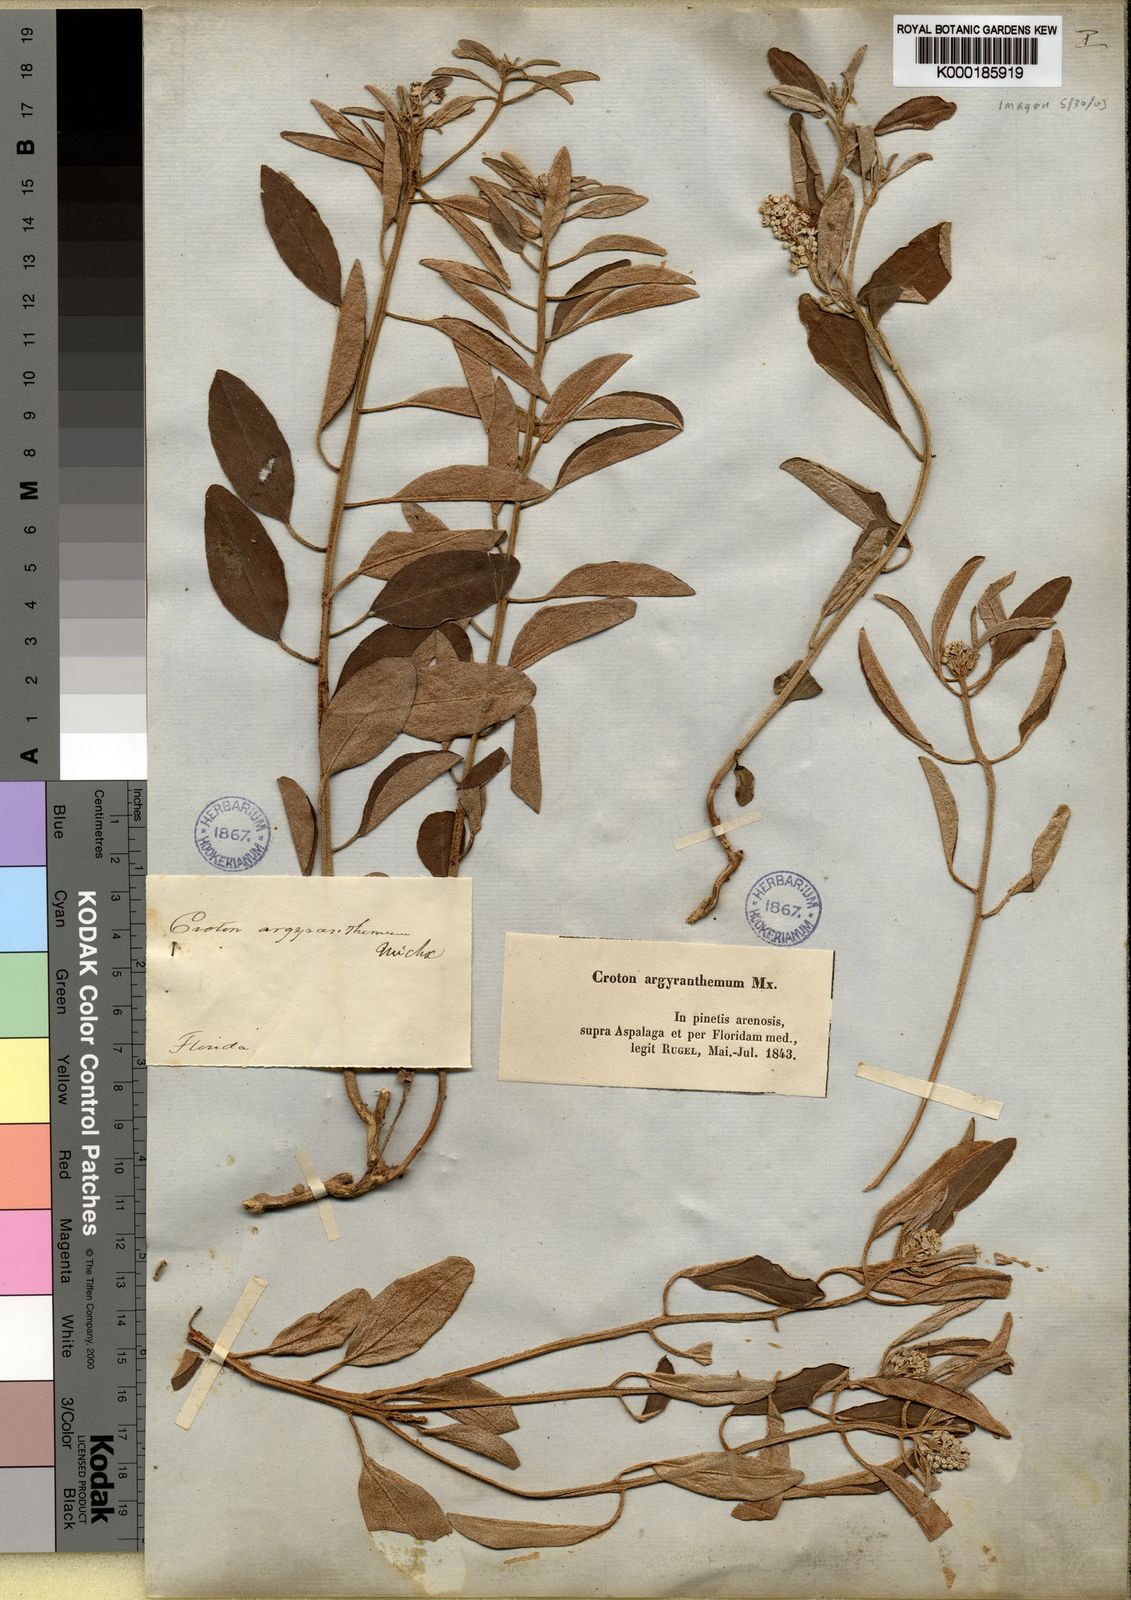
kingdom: Plantae
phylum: Tracheophyta
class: Magnoliopsida
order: Malpighiales
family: Euphorbiaceae
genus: Croton
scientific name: Croton argyranthemus
